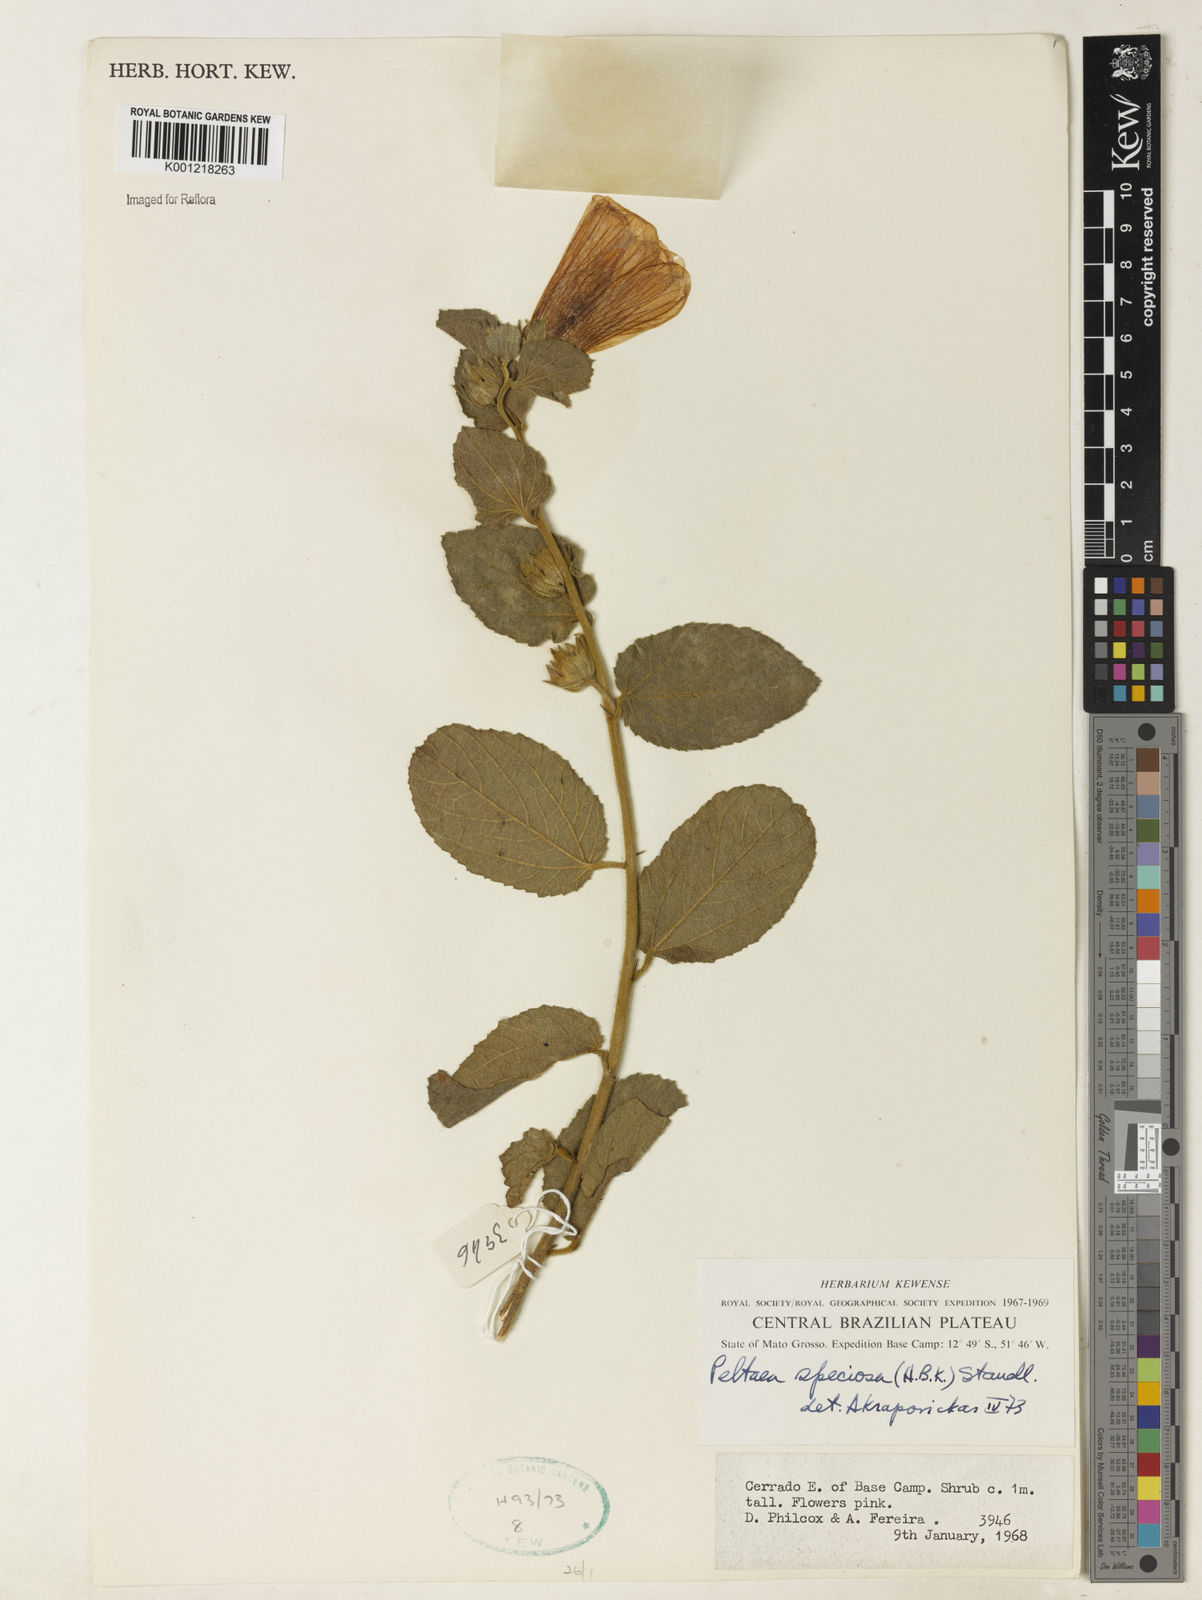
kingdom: Plantae
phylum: Tracheophyta
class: Magnoliopsida
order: Malvales
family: Malvaceae
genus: Peltaea
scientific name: Peltaea speciosa
